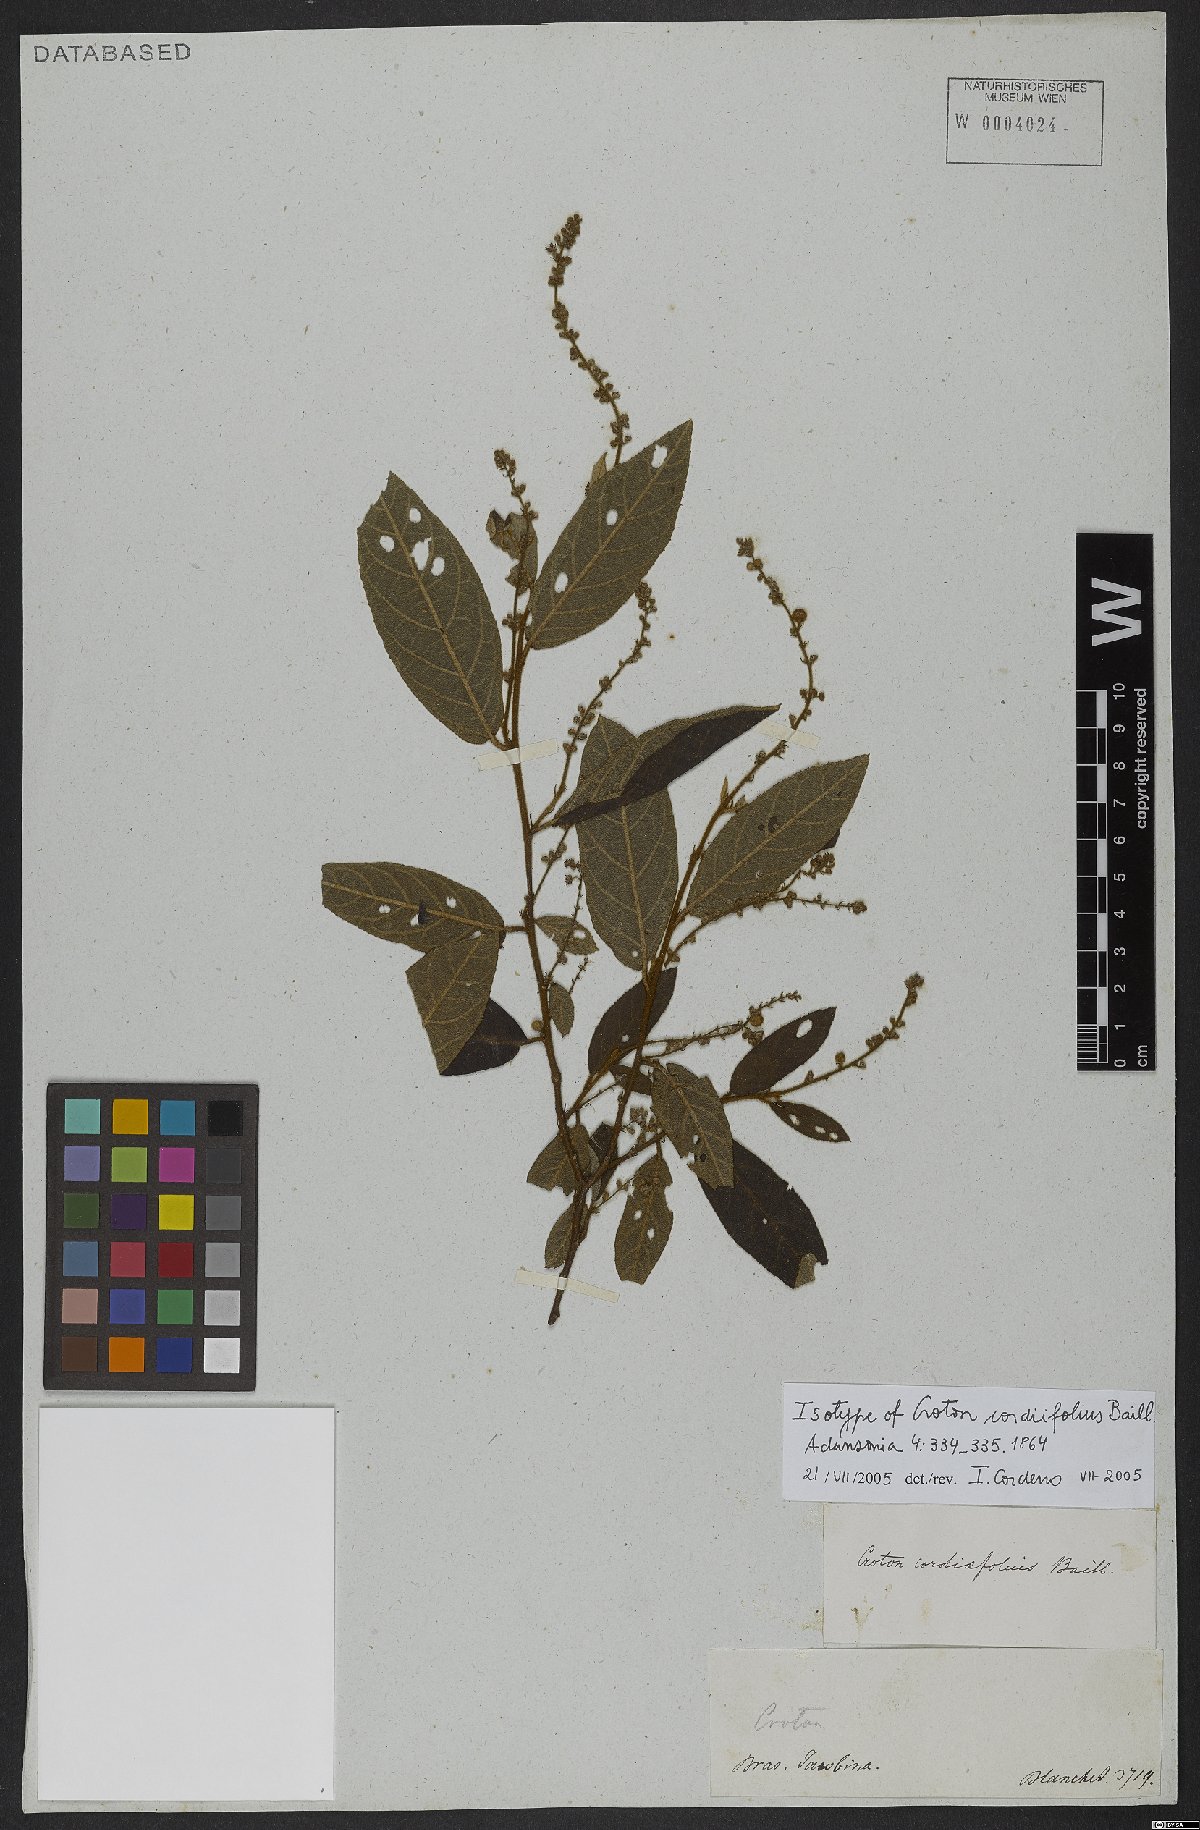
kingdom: Plantae
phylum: Tracheophyta
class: Magnoliopsida
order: Malpighiales
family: Euphorbiaceae
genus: Croton
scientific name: Croton cordiifolius
